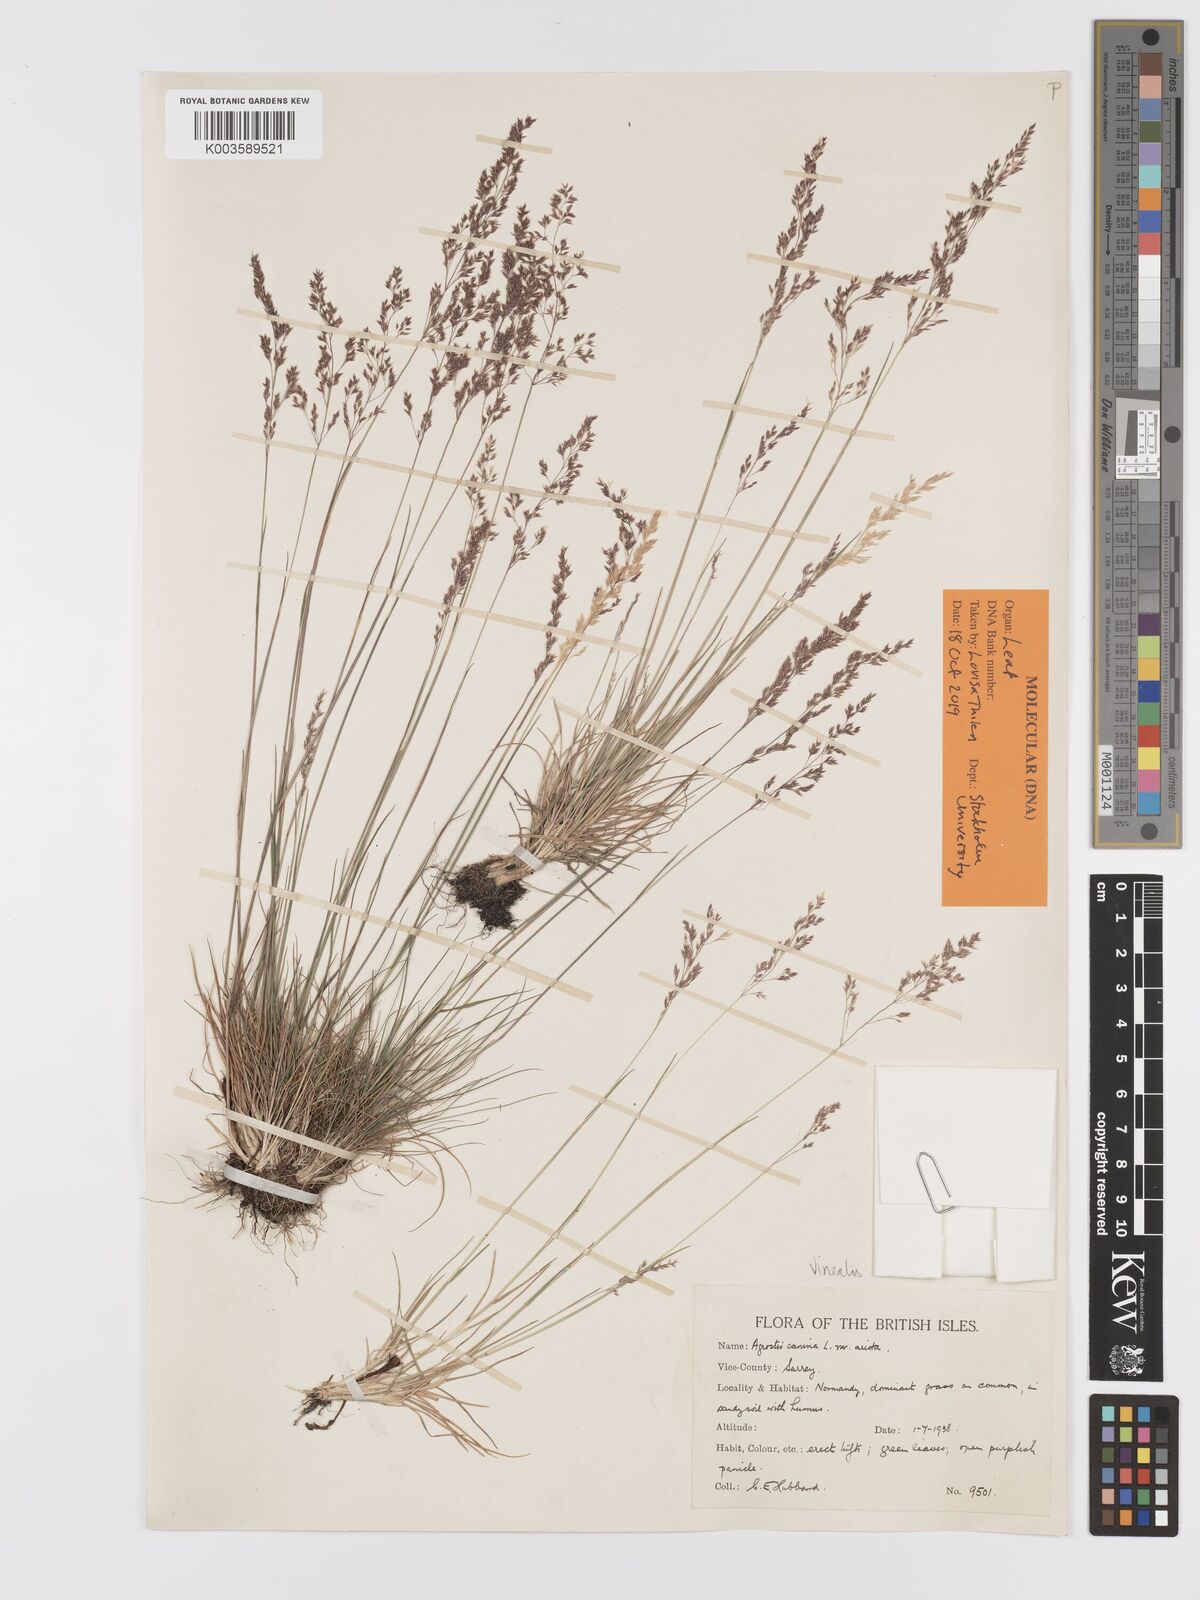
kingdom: Plantae
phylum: Tracheophyta
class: Liliopsida
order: Poales
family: Poaceae
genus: Agrostis
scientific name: Agrostis
